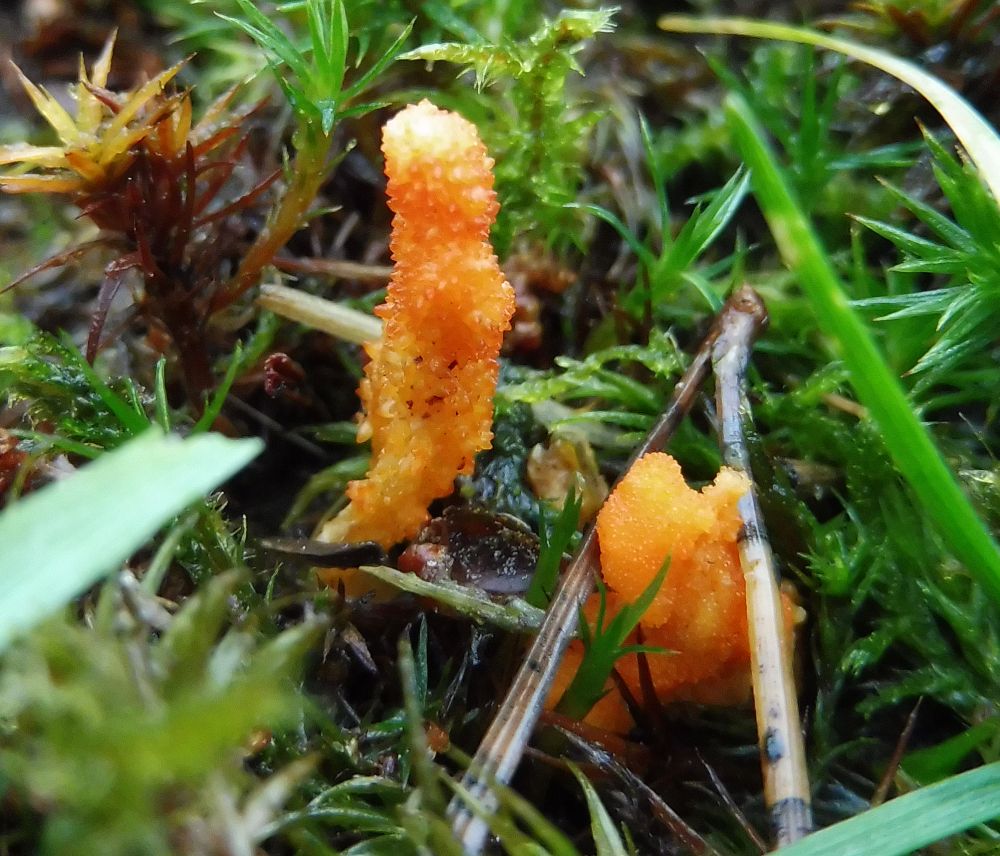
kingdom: Fungi
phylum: Ascomycota
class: Sordariomycetes
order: Hypocreales
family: Cordycipitaceae
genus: Cordyceps
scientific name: Cordyceps militaris
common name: puppe-snyltekølle
